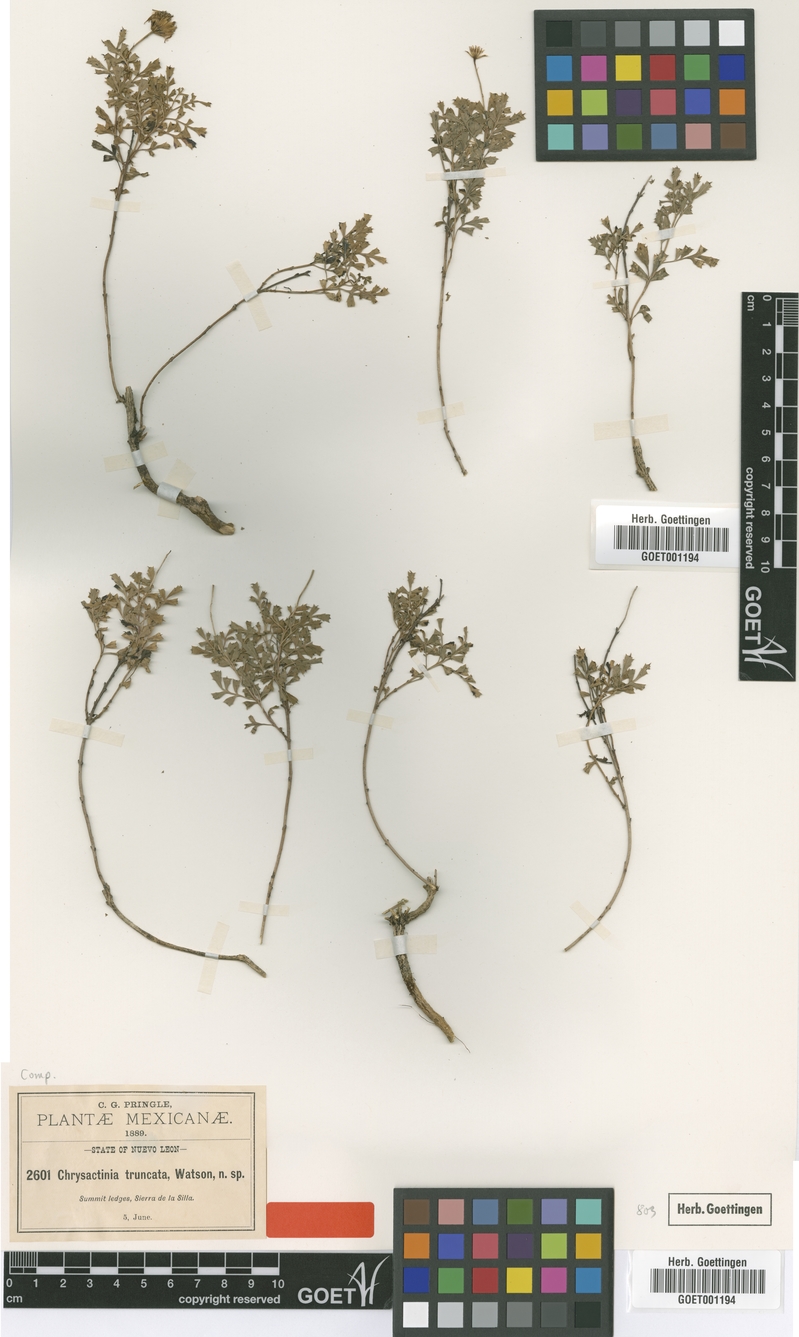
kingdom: Plantae
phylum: Tracheophyta
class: Magnoliopsida
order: Asterales
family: Asteraceae
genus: Chrysactinia
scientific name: Chrysactinia truncata
